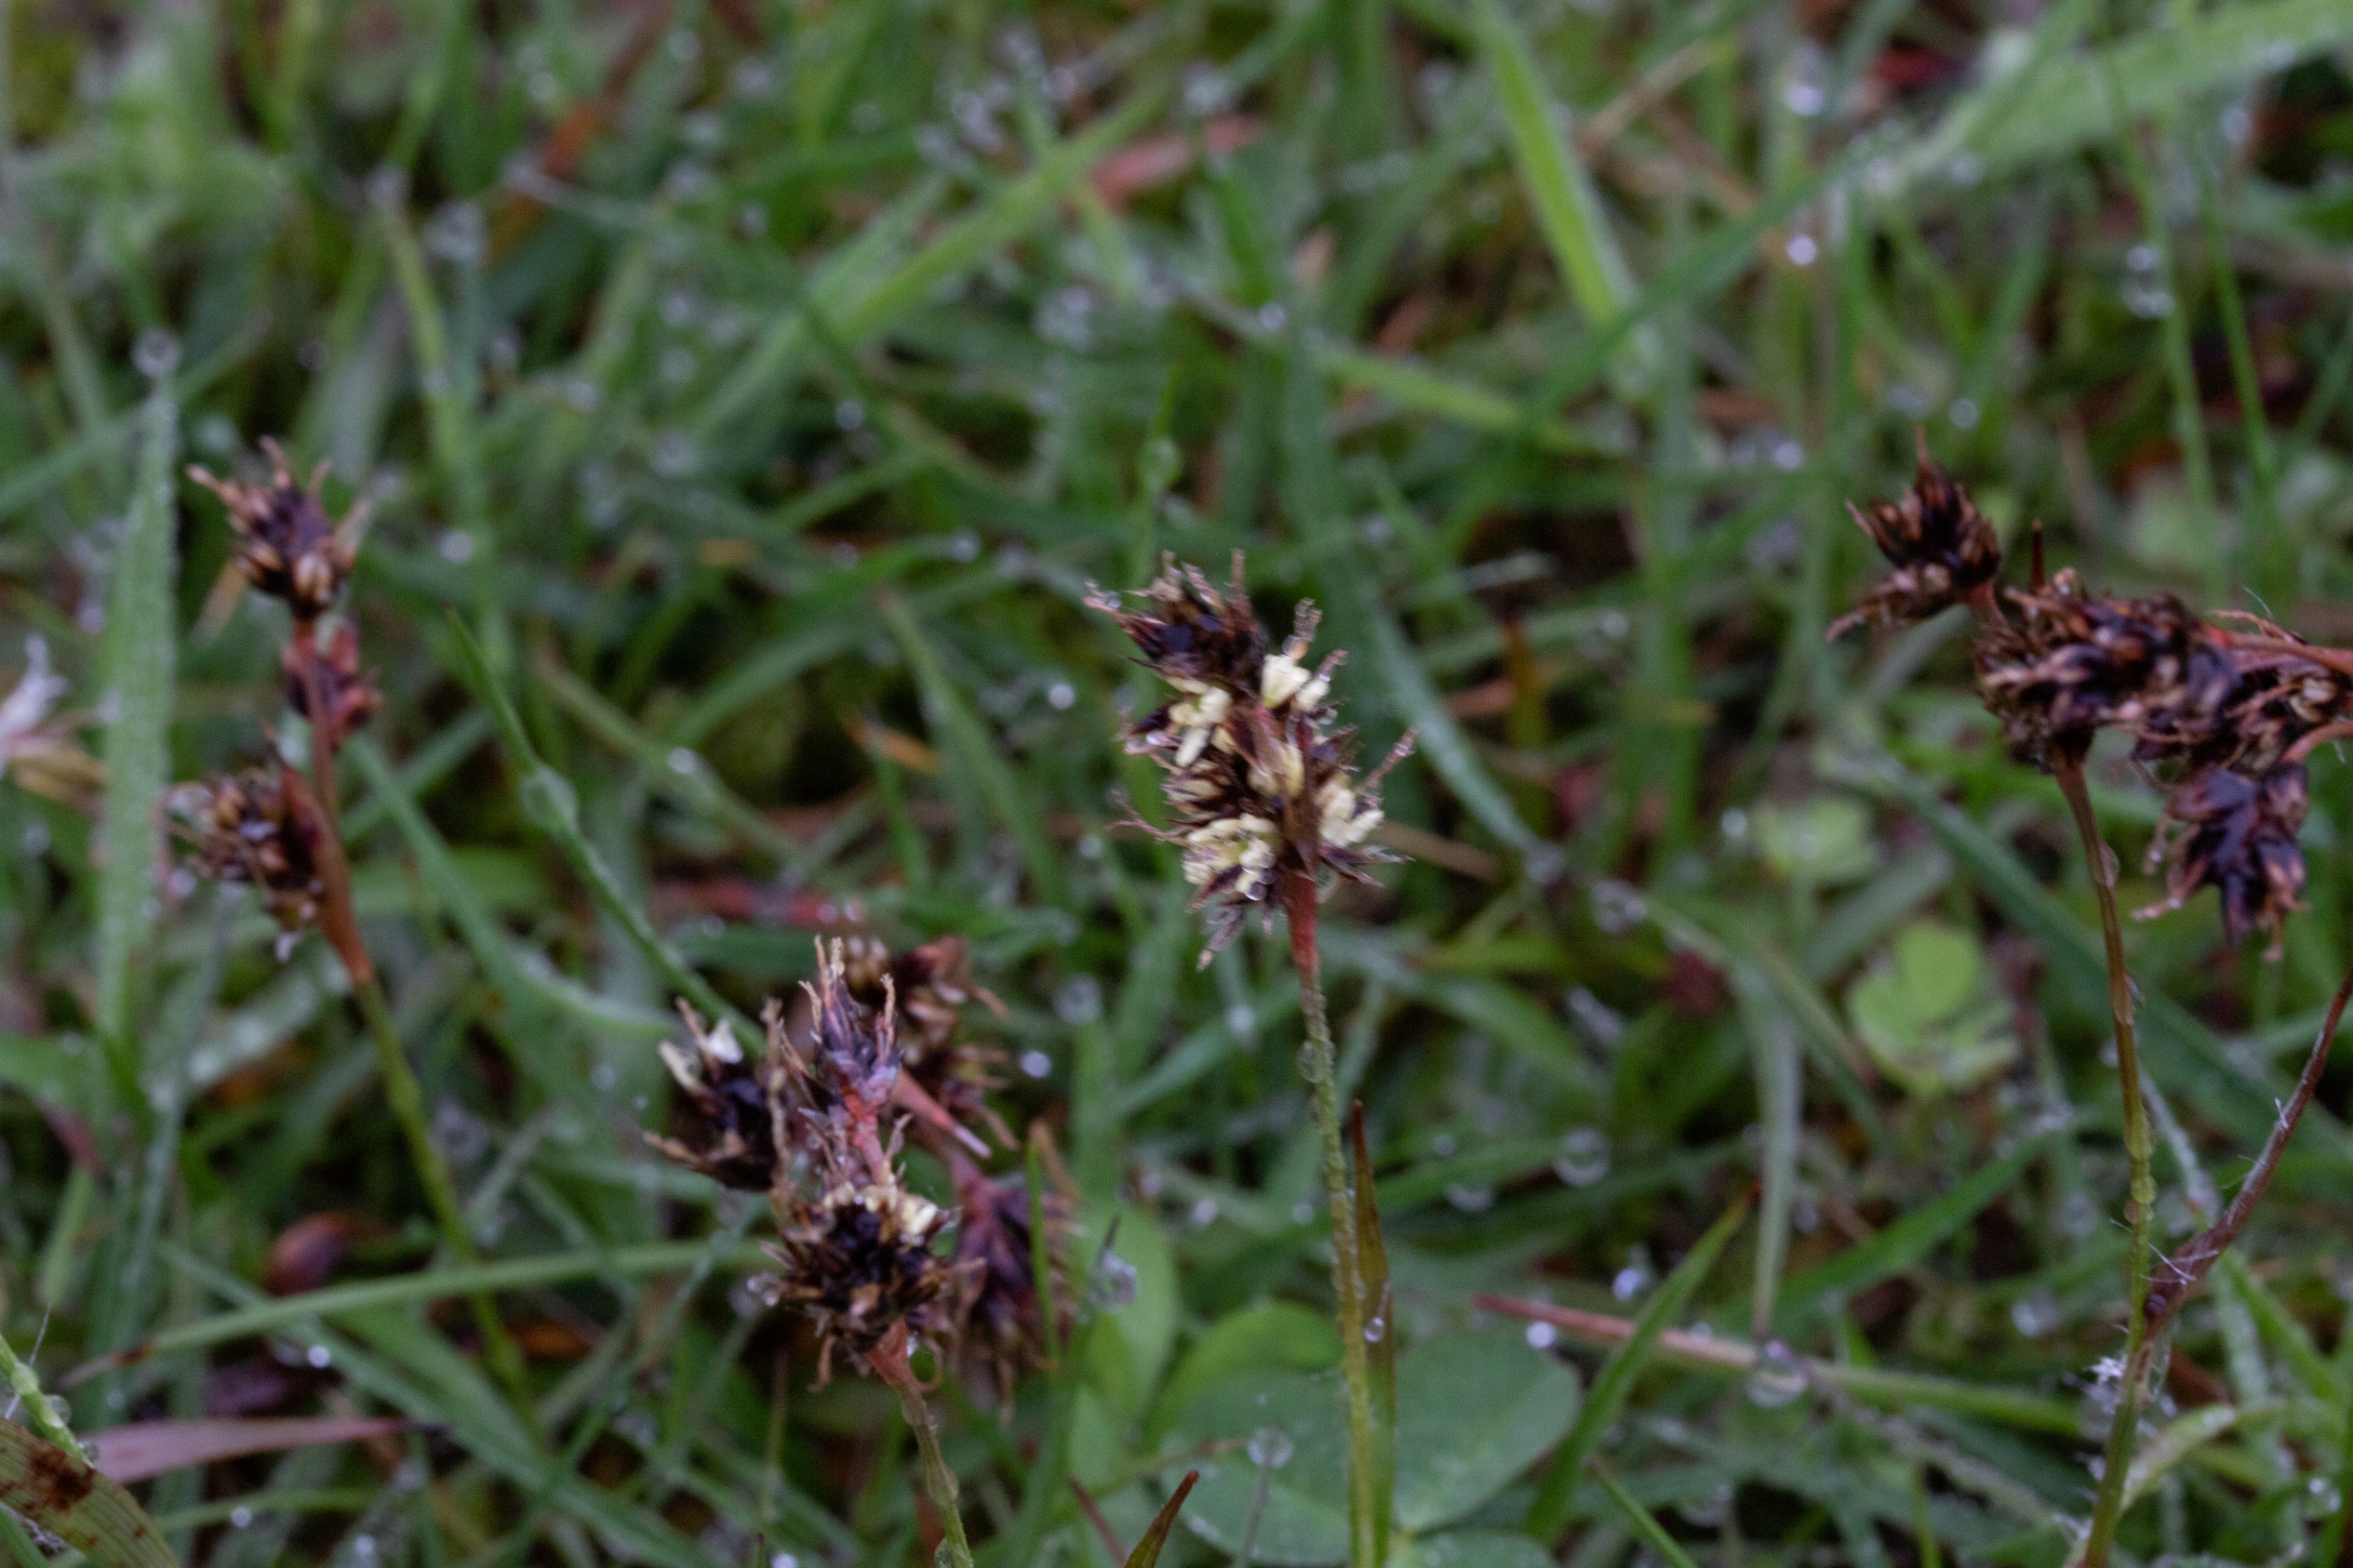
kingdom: Plantae
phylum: Tracheophyta
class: Liliopsida
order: Poales
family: Juncaceae
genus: Luzula
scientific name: Luzula campestris
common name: Mark-frytle
